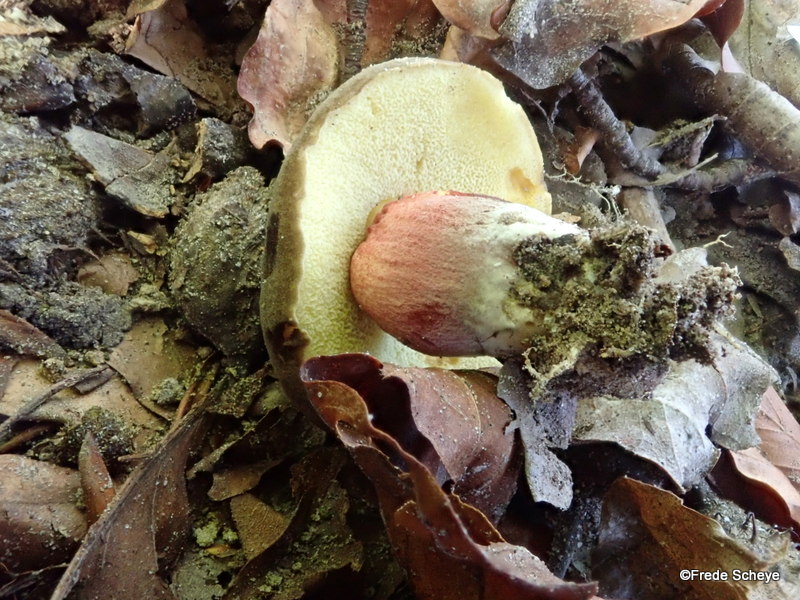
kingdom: Fungi
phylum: Basidiomycota
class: Agaricomycetes
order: Boletales
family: Boletaceae
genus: Xerocomellus
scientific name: Xerocomellus pruinatus
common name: dugget rørhat
